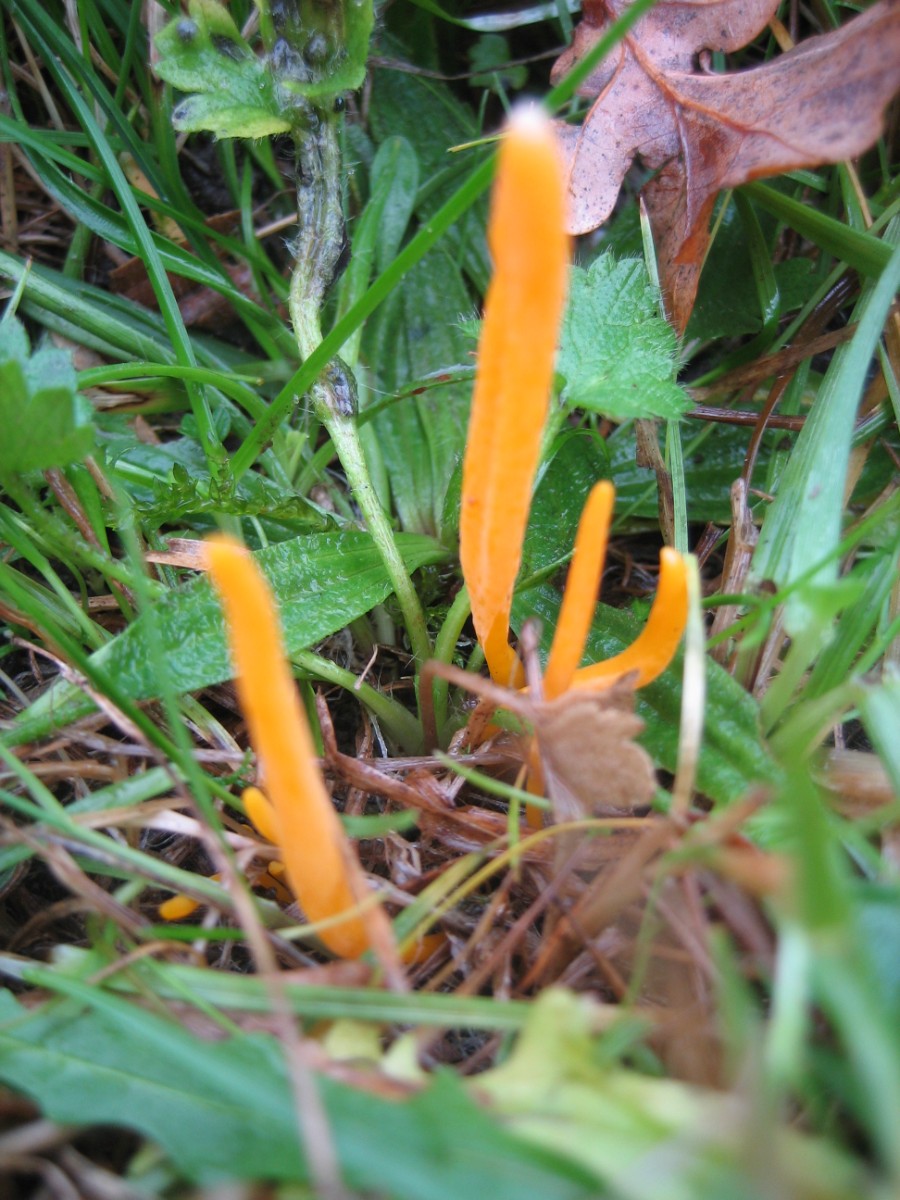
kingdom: Fungi
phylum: Basidiomycota
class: Agaricomycetes
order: Agaricales
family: Clavariaceae
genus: Clavulinopsis
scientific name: Clavulinopsis luteoalba
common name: abrikos-køllesvamp
